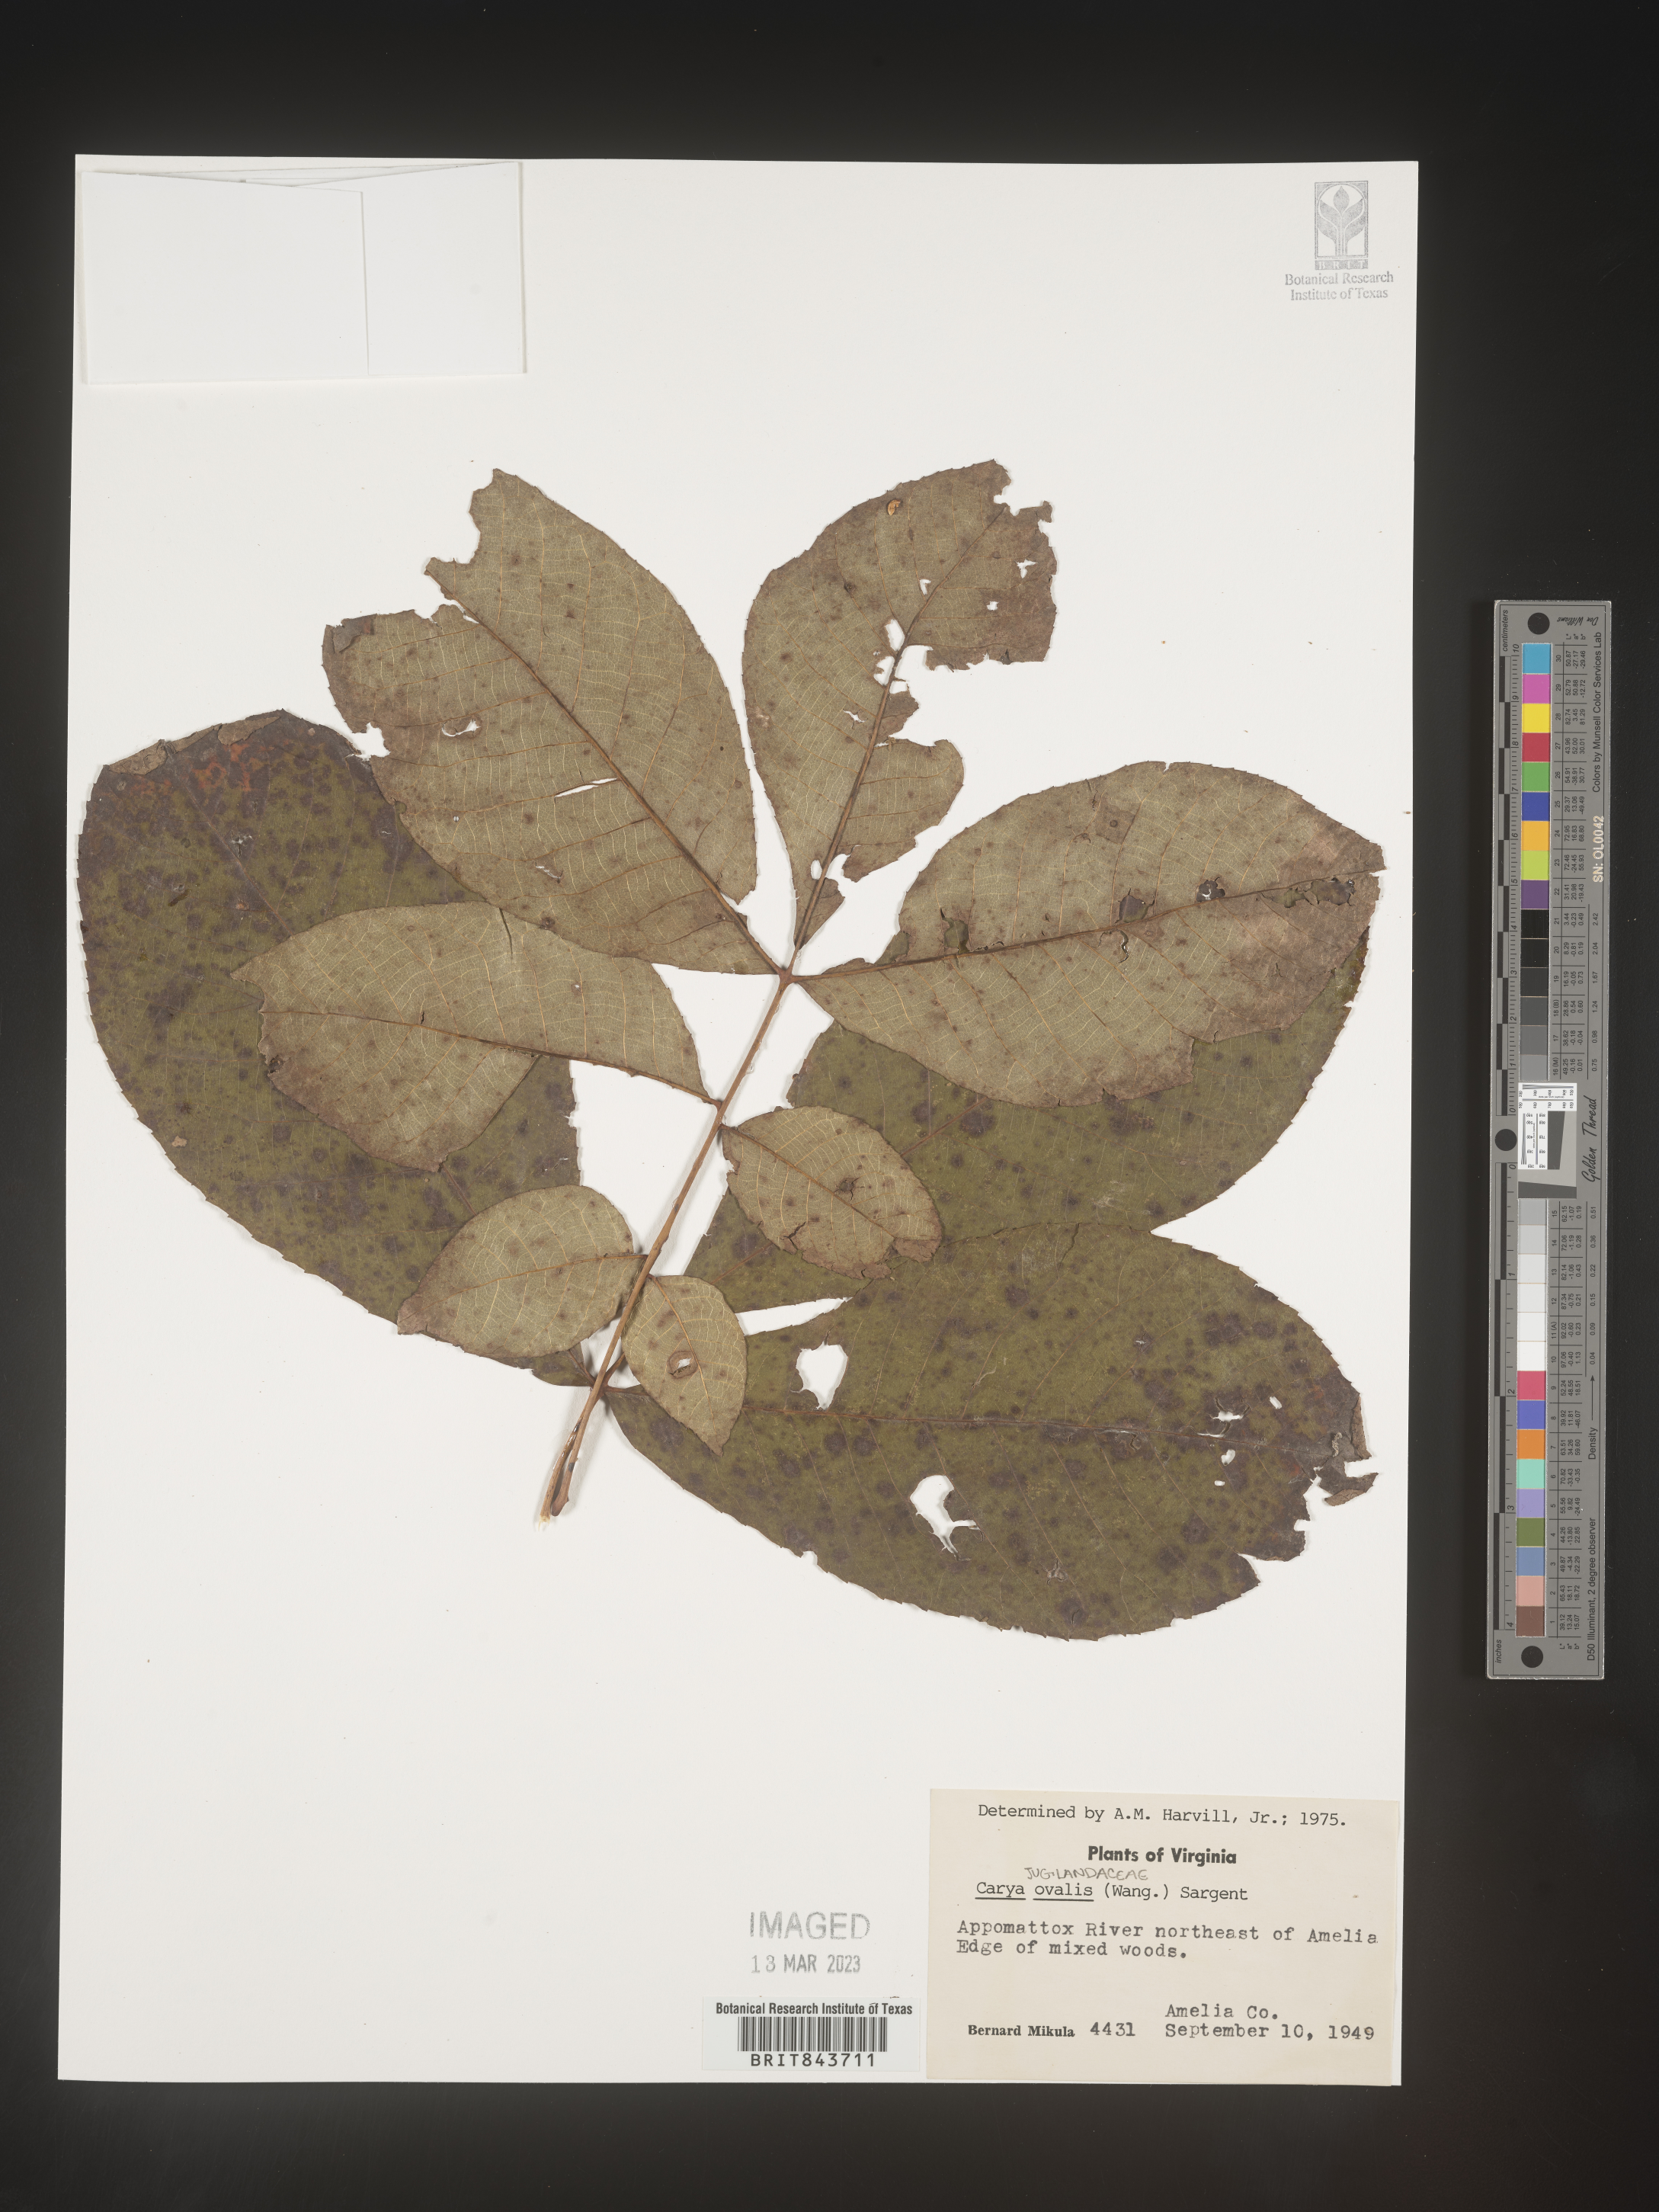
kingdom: Plantae
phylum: Tracheophyta
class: Magnoliopsida
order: Fagales
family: Juglandaceae
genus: Carya
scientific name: Carya ovalis
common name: False shagbark
